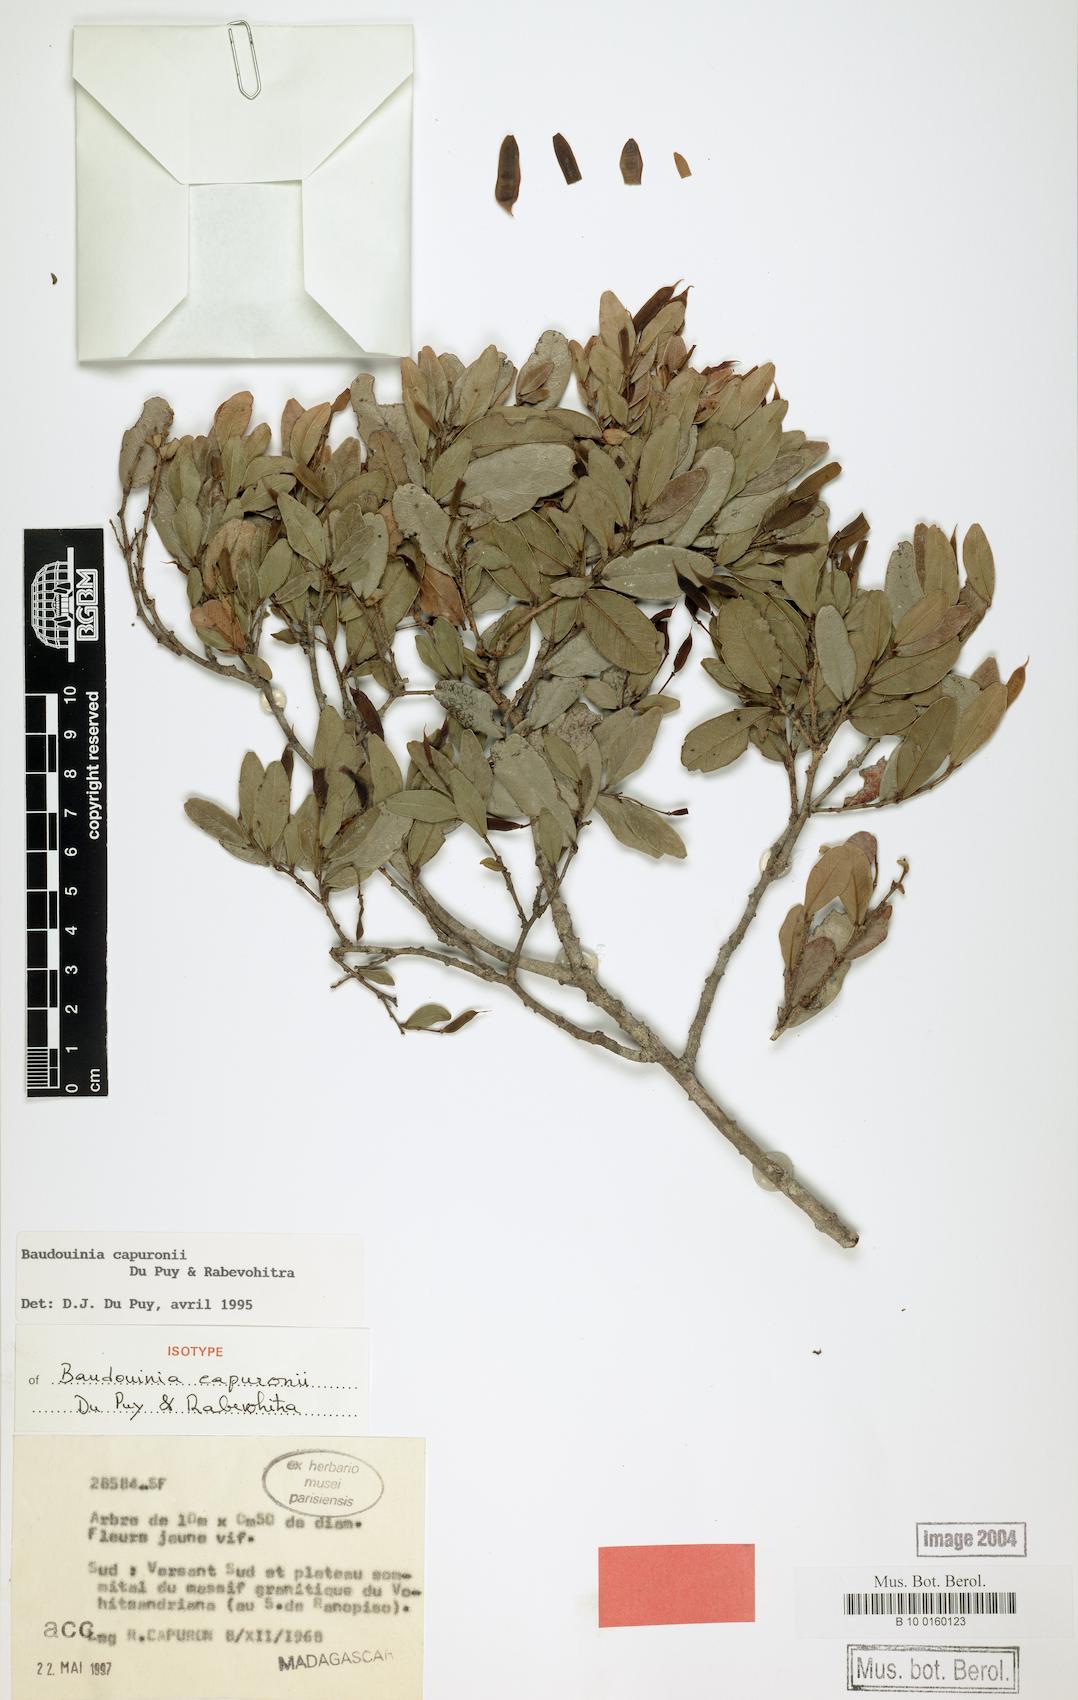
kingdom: Plantae
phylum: Tracheophyta
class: Magnoliopsida
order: Fabales
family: Fabaceae
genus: Baudouinia
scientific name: Baudouinia capuronii
